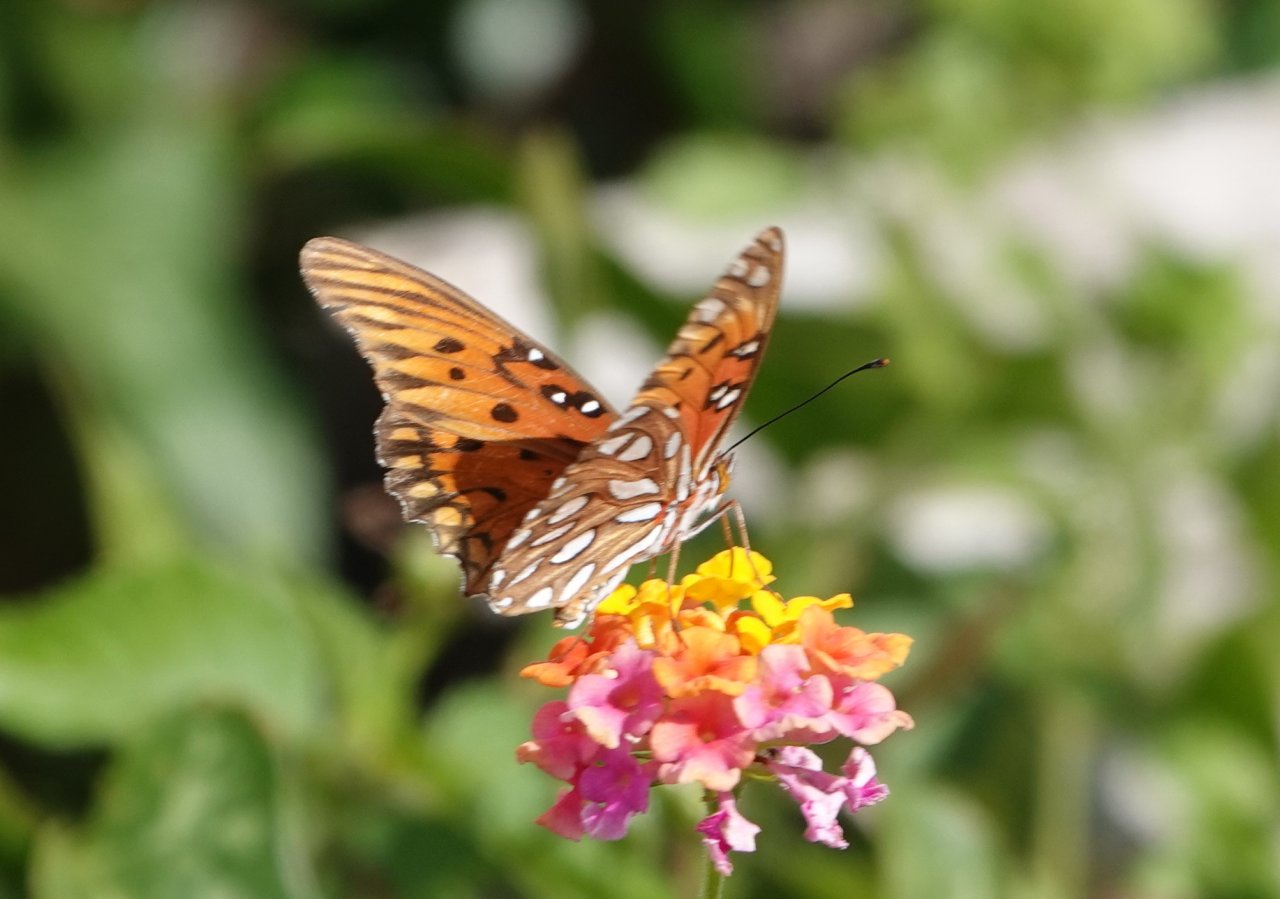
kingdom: Animalia
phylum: Arthropoda
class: Insecta
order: Lepidoptera
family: Nymphalidae
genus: Dione
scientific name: Dione vanillae
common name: Gulf Fritillary
